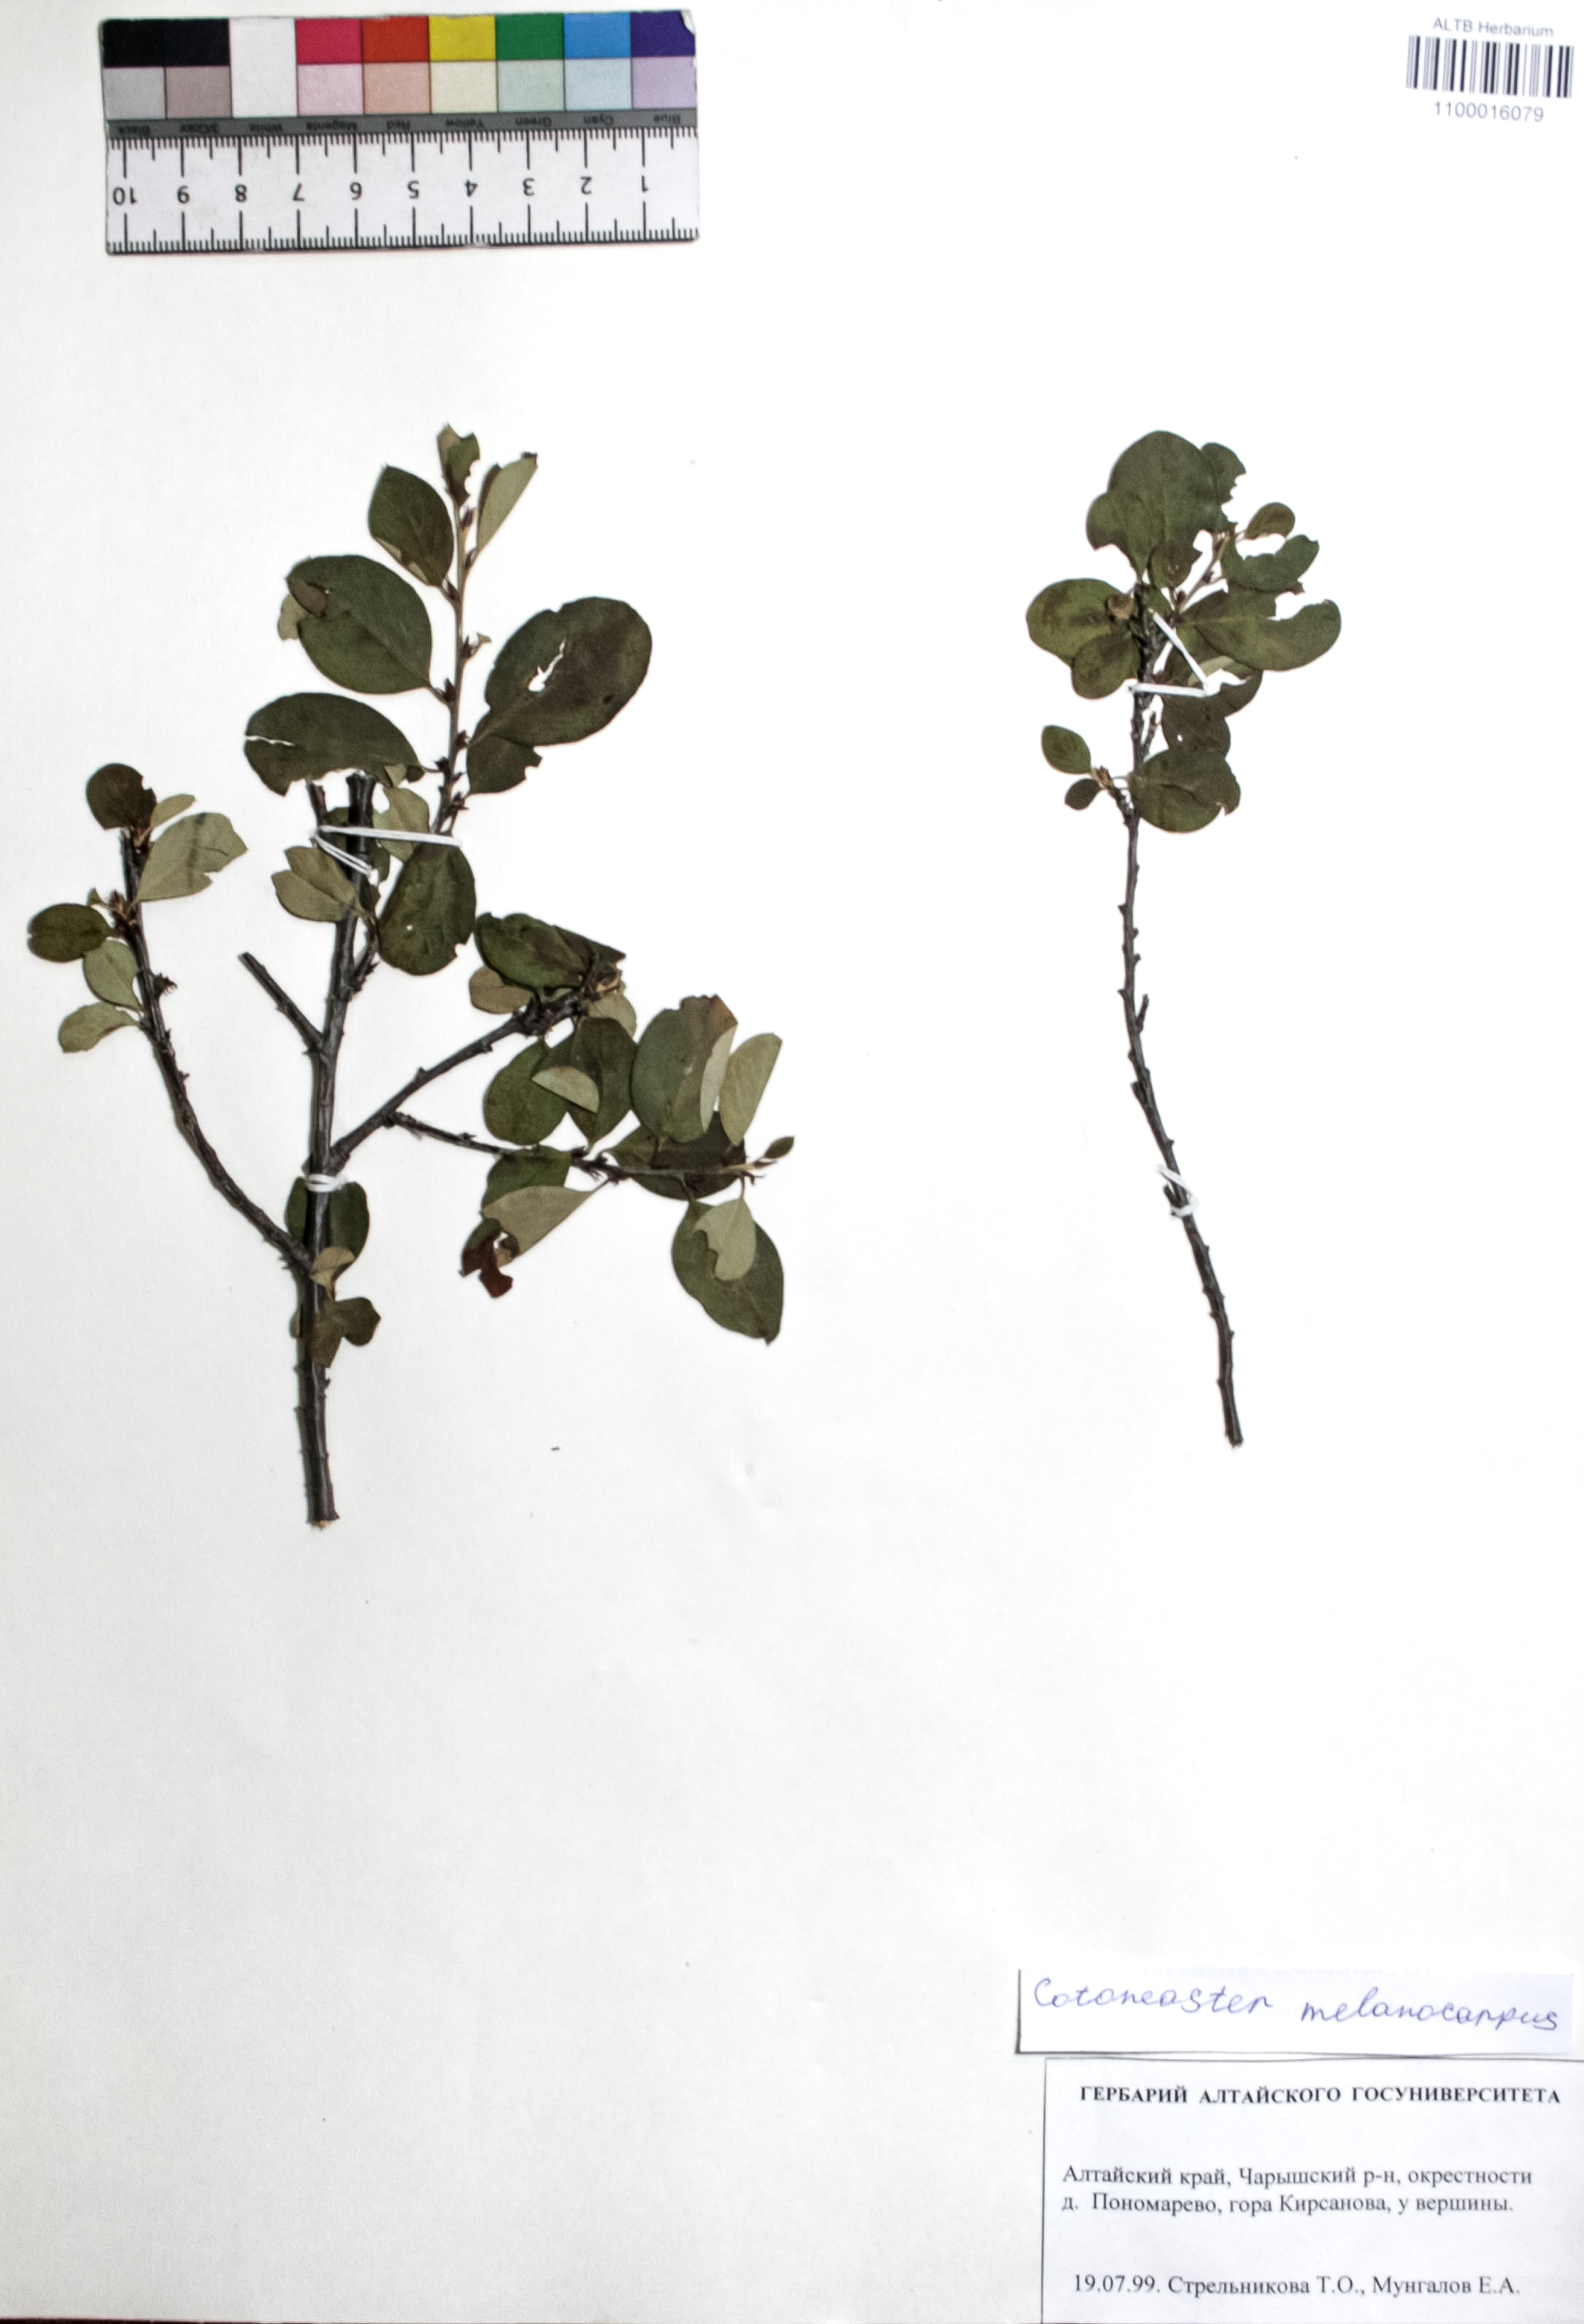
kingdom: Plantae
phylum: Tracheophyta
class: Magnoliopsida
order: Rosales
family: Rosaceae
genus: Cotoneaster
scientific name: Cotoneaster niger
